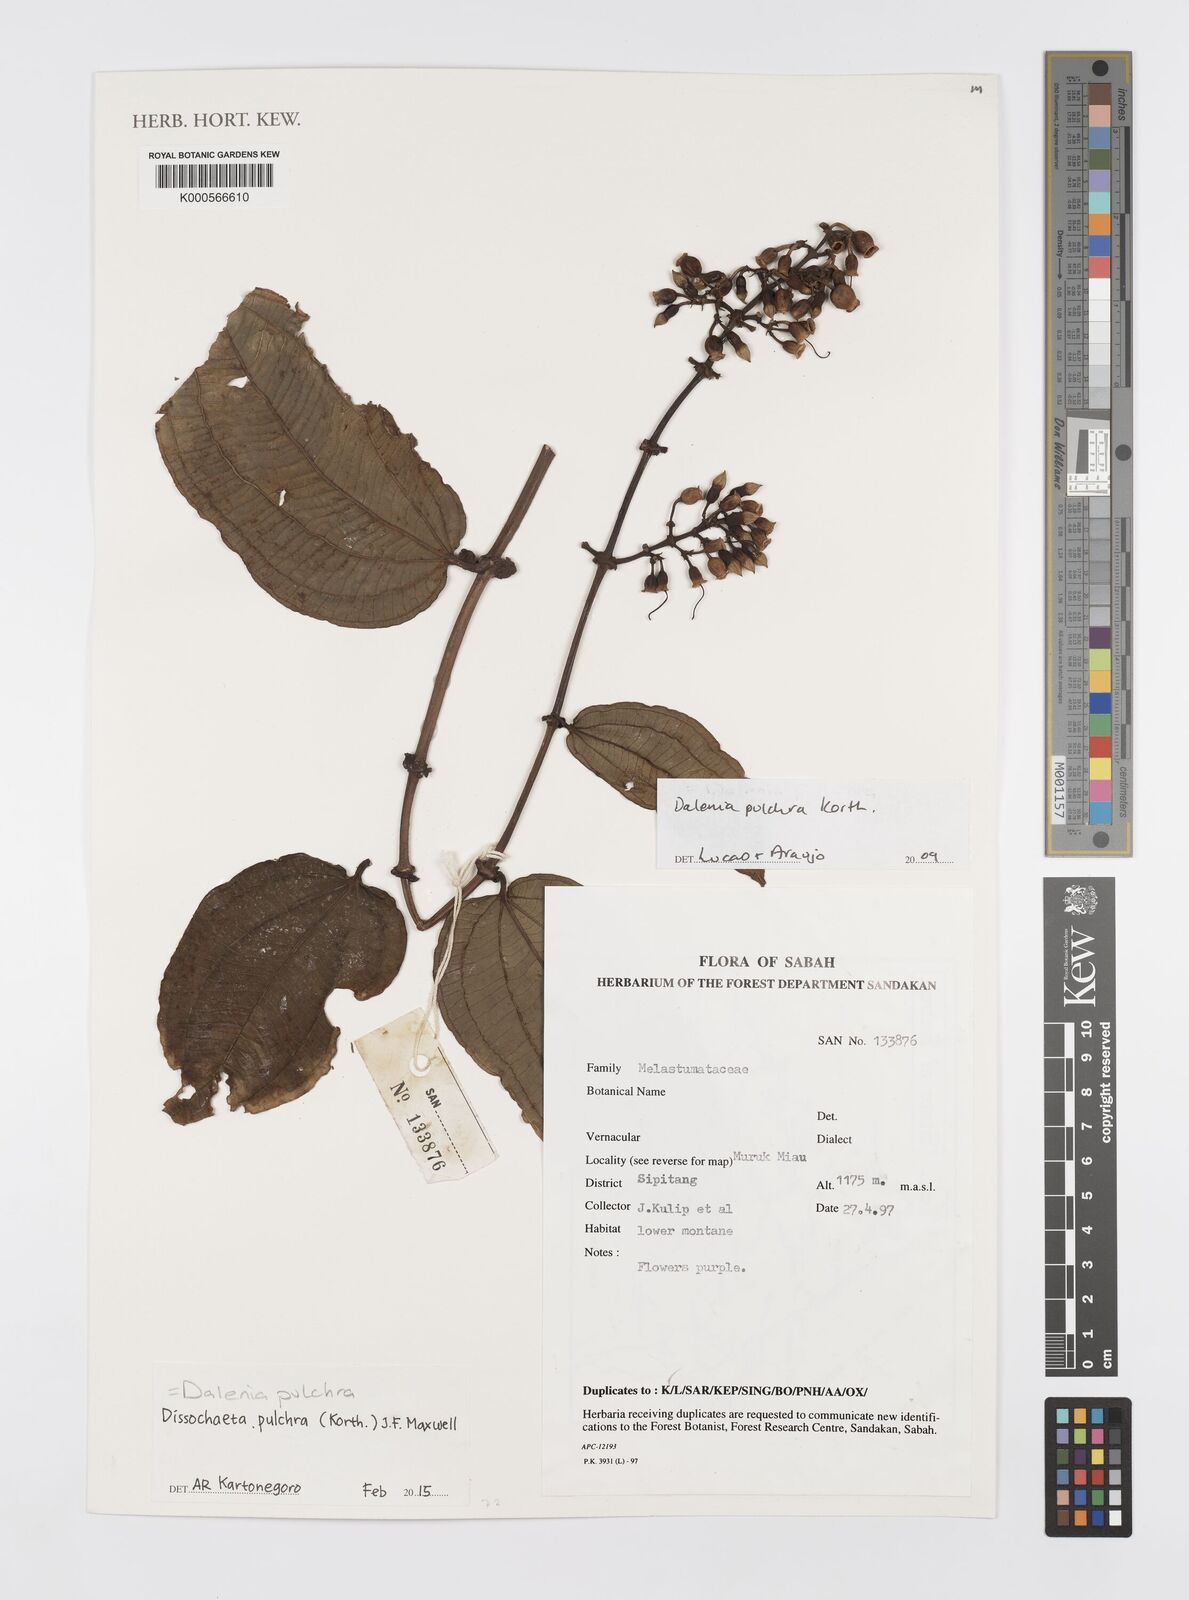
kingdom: Plantae
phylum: Tracheophyta
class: Magnoliopsida
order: Myrtales
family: Melastomataceae
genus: Dalenia
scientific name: Dalenia pulchra
